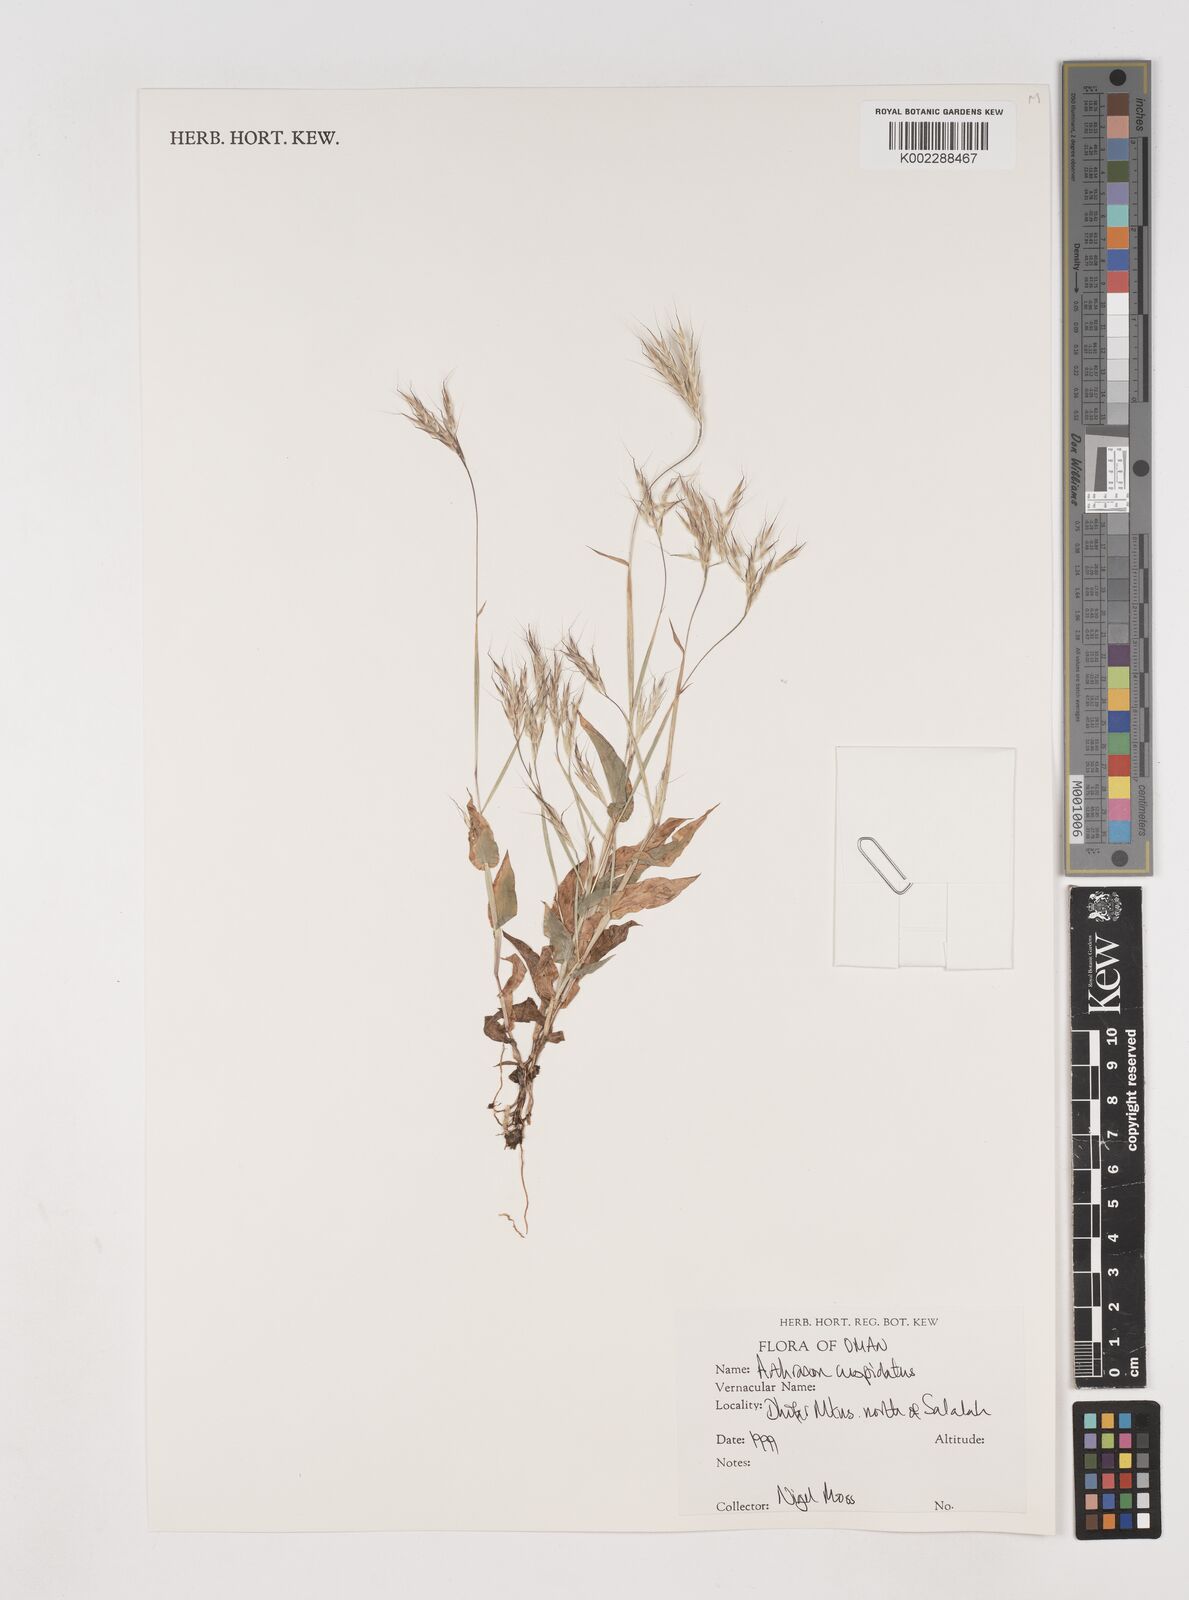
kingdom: Plantae
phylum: Tracheophyta
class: Liliopsida
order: Poales
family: Poaceae
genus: Arthraxon
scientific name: Arthraxon cuspidatus
